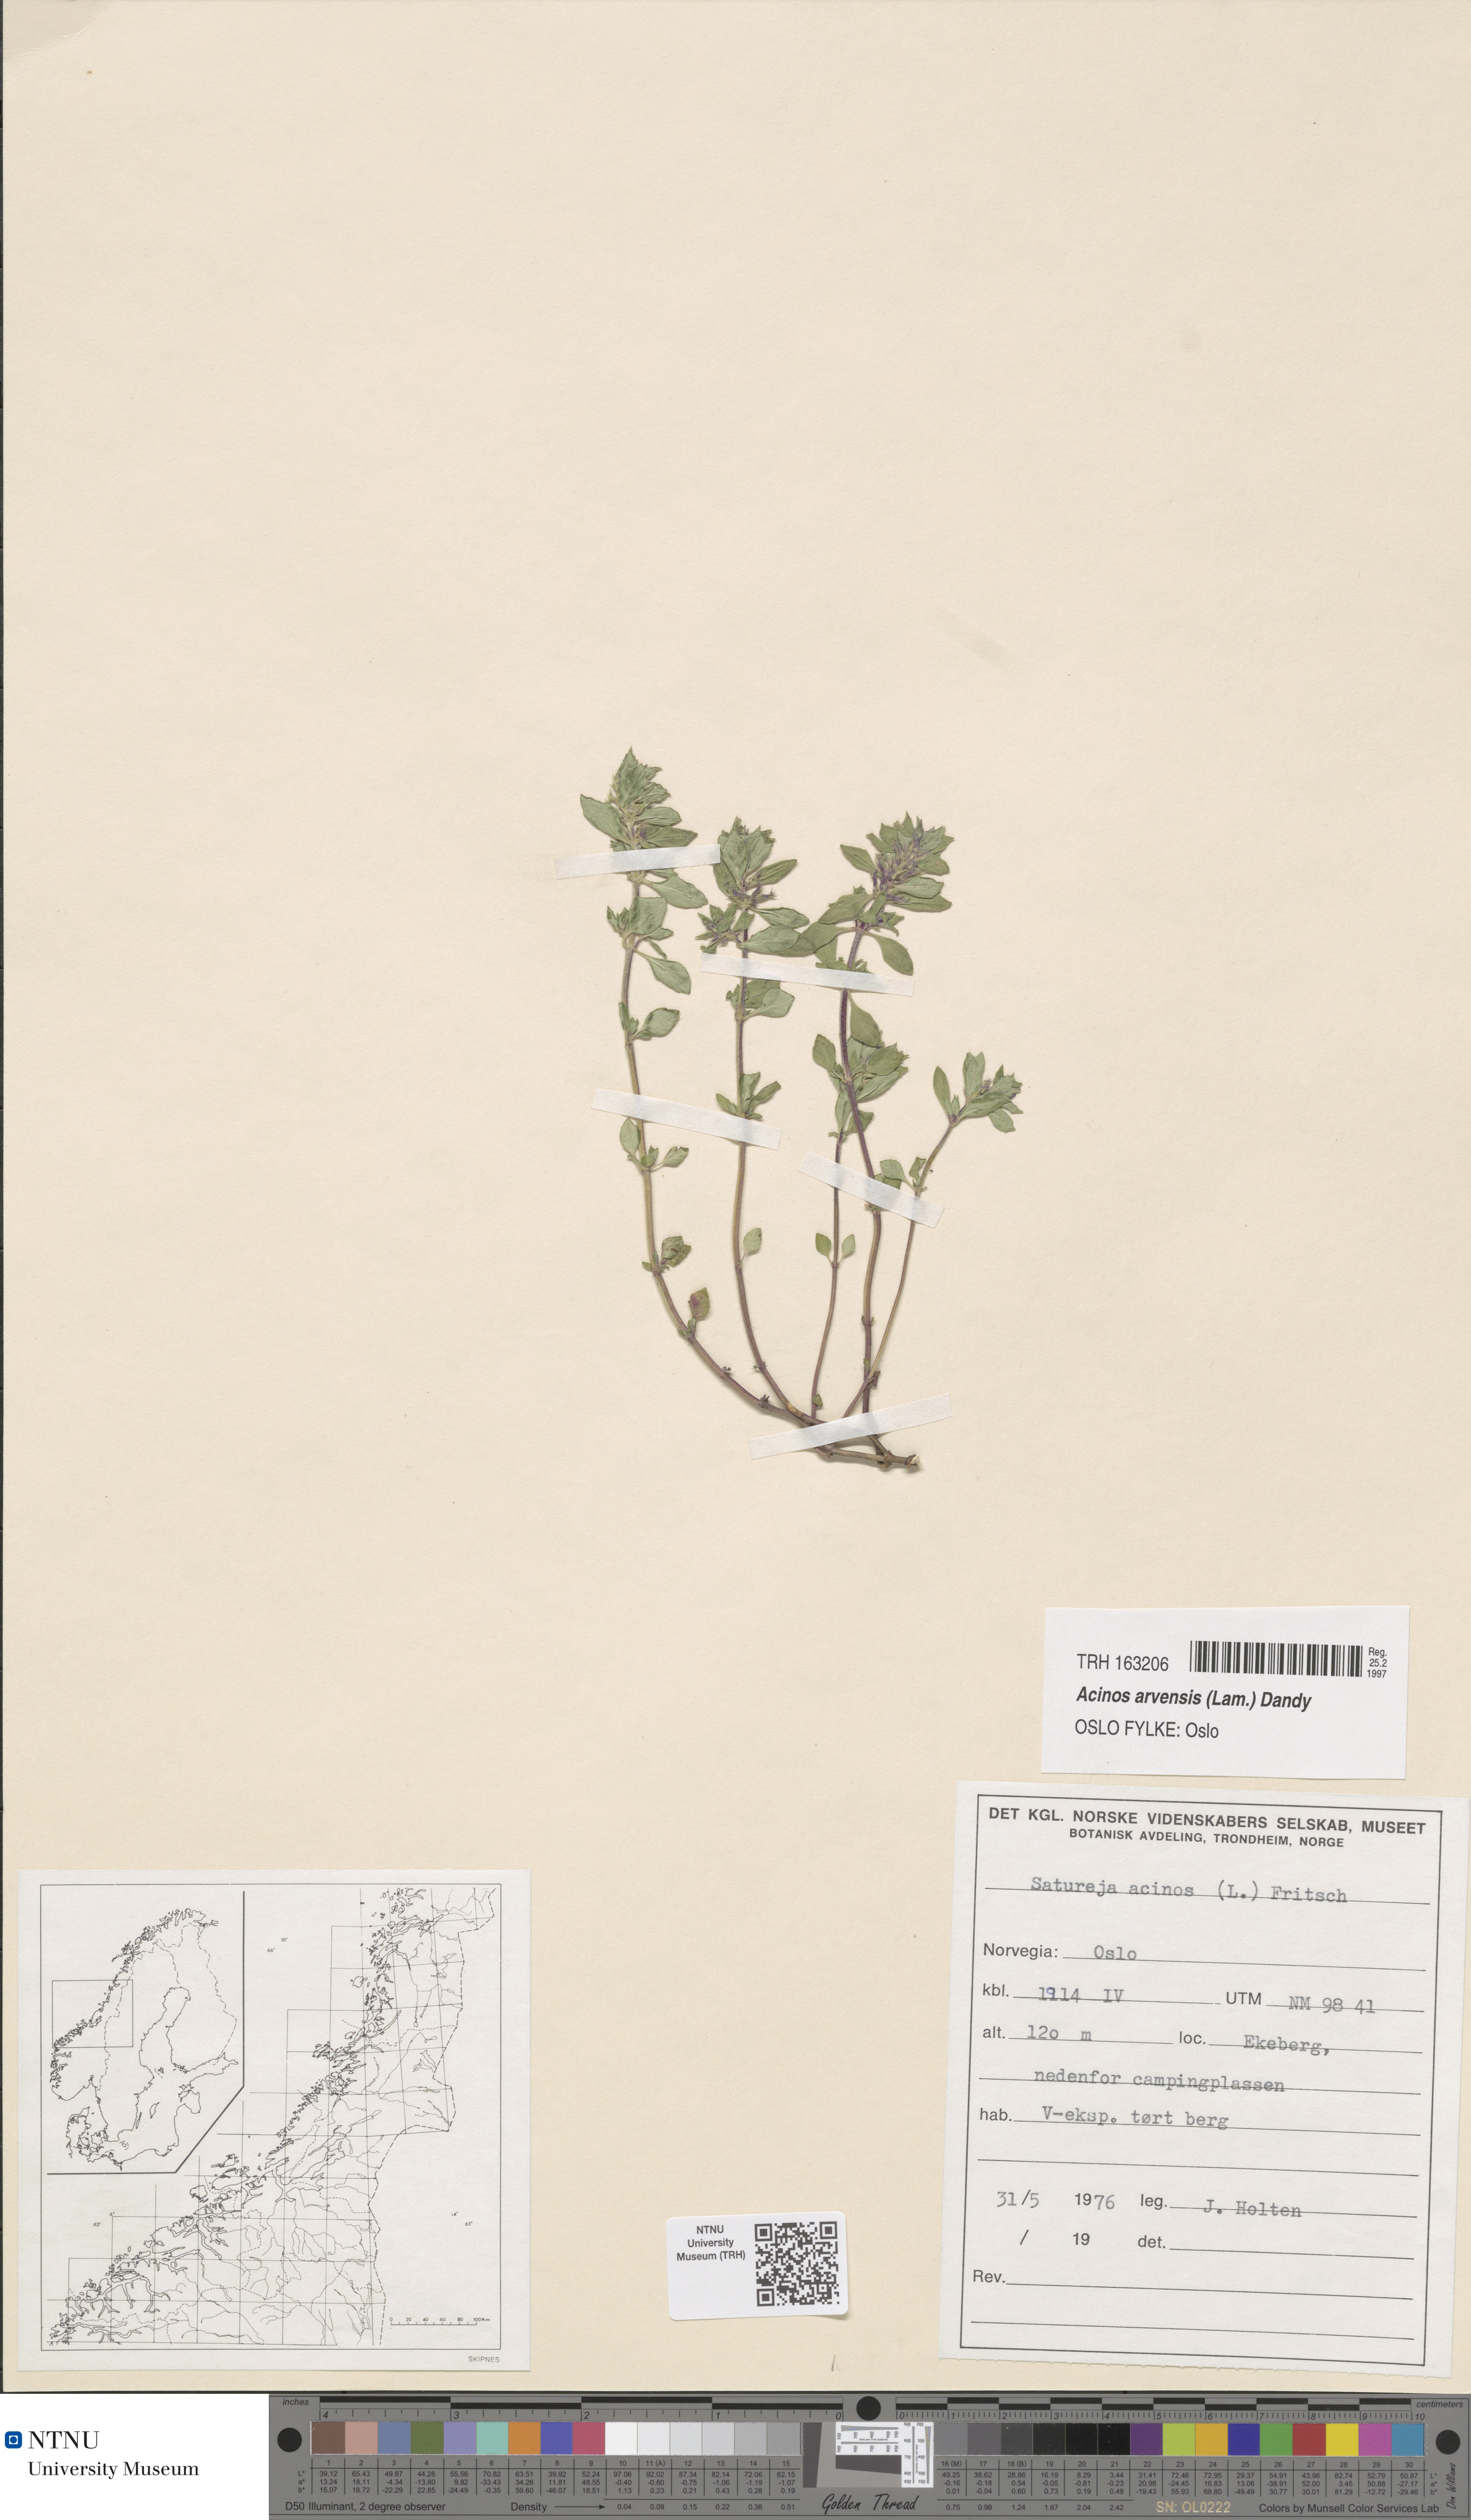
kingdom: Plantae
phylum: Tracheophyta
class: Magnoliopsida
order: Lamiales
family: Lamiaceae
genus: Clinopodium
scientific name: Clinopodium acinos
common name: Basil thyme
